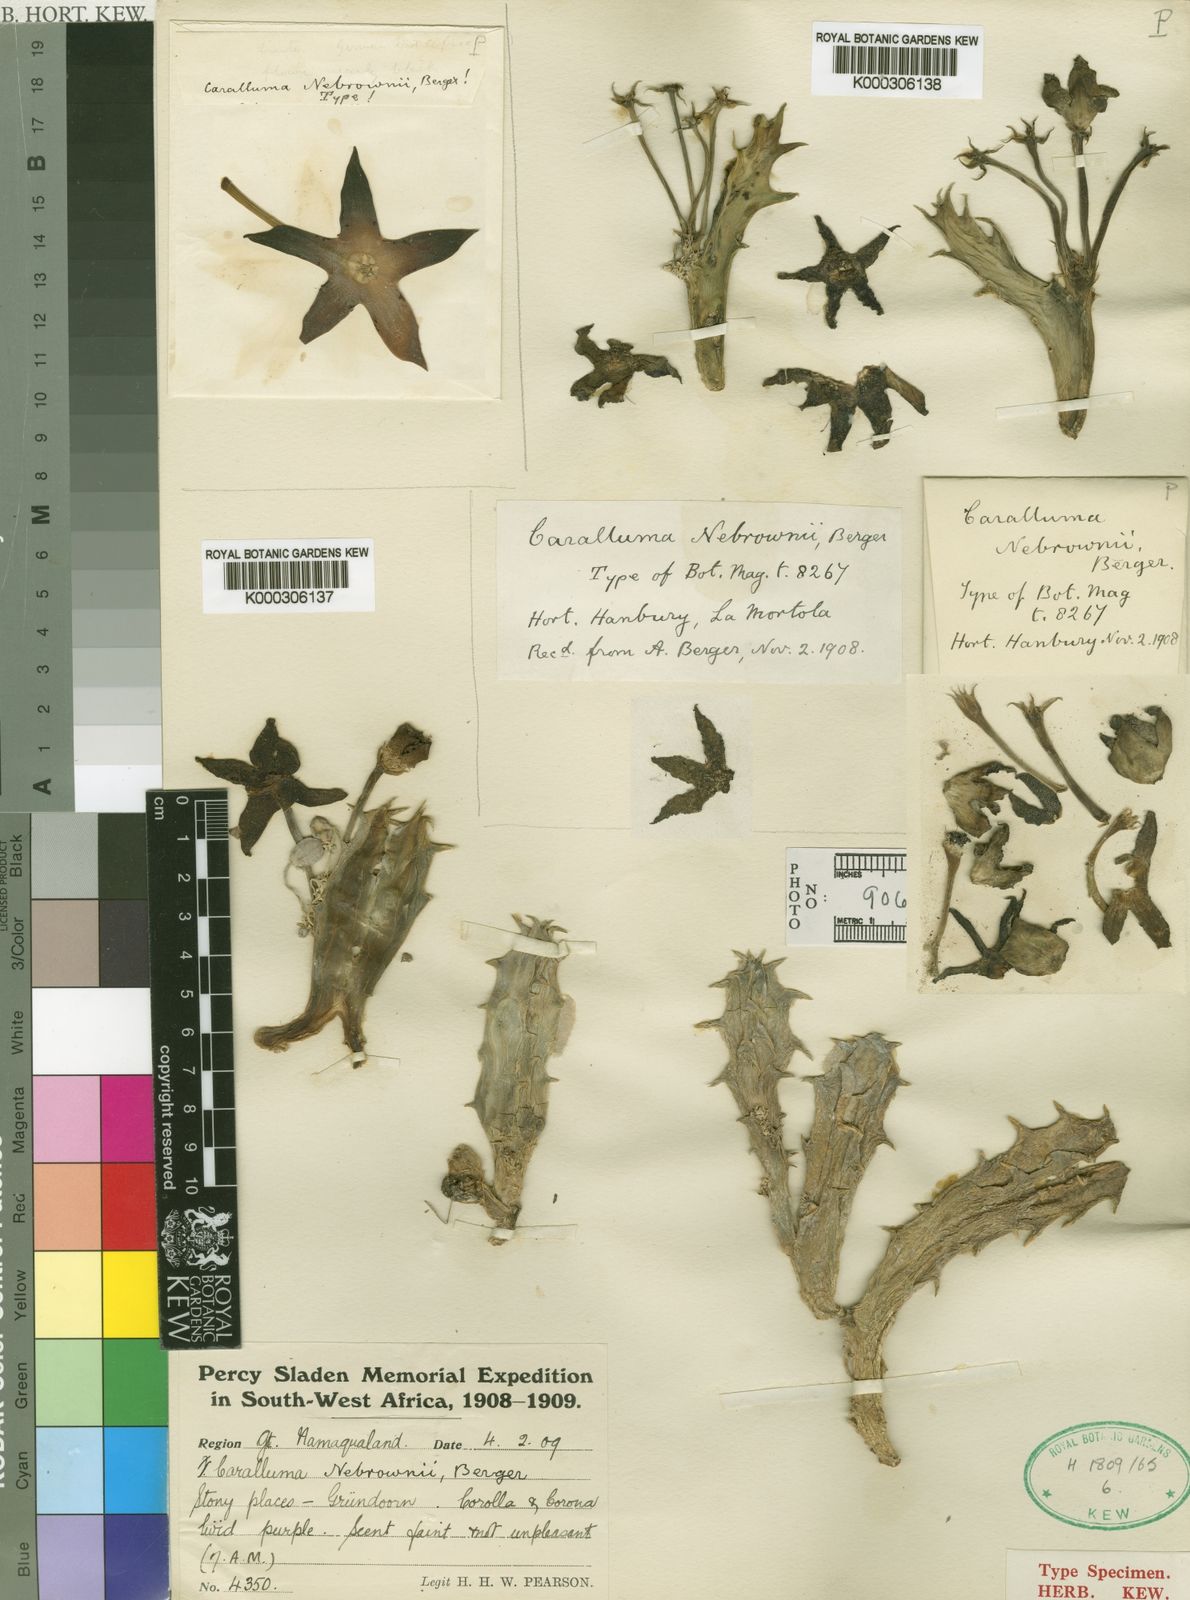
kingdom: Plantae
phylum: Tracheophyta
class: Magnoliopsida
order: Gentianales
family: Apocynaceae
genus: Ceropegia
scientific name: Ceropegia lutea
